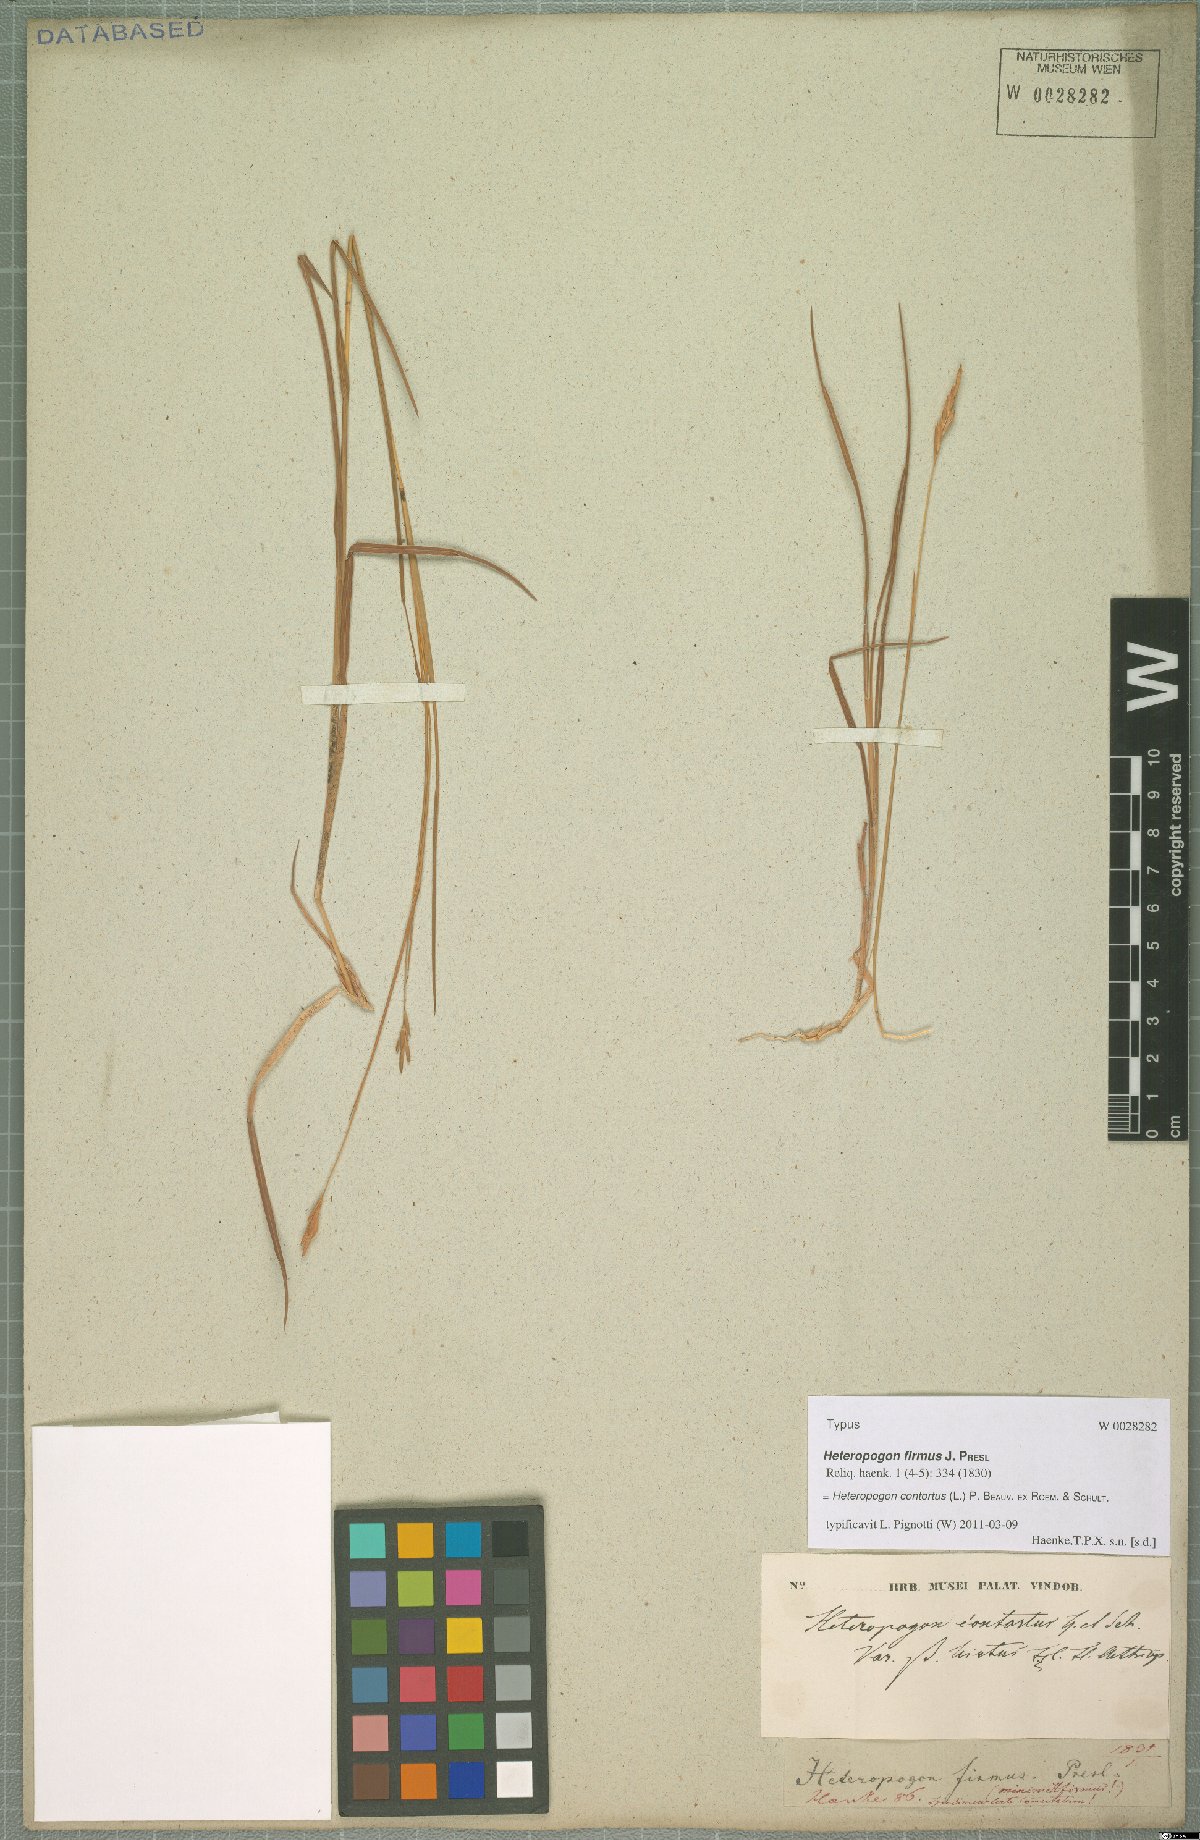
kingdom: Plantae
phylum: Tracheophyta
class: Liliopsida
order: Poales
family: Poaceae
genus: Heteropogon
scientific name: Heteropogon contortus
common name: Tanglehead
